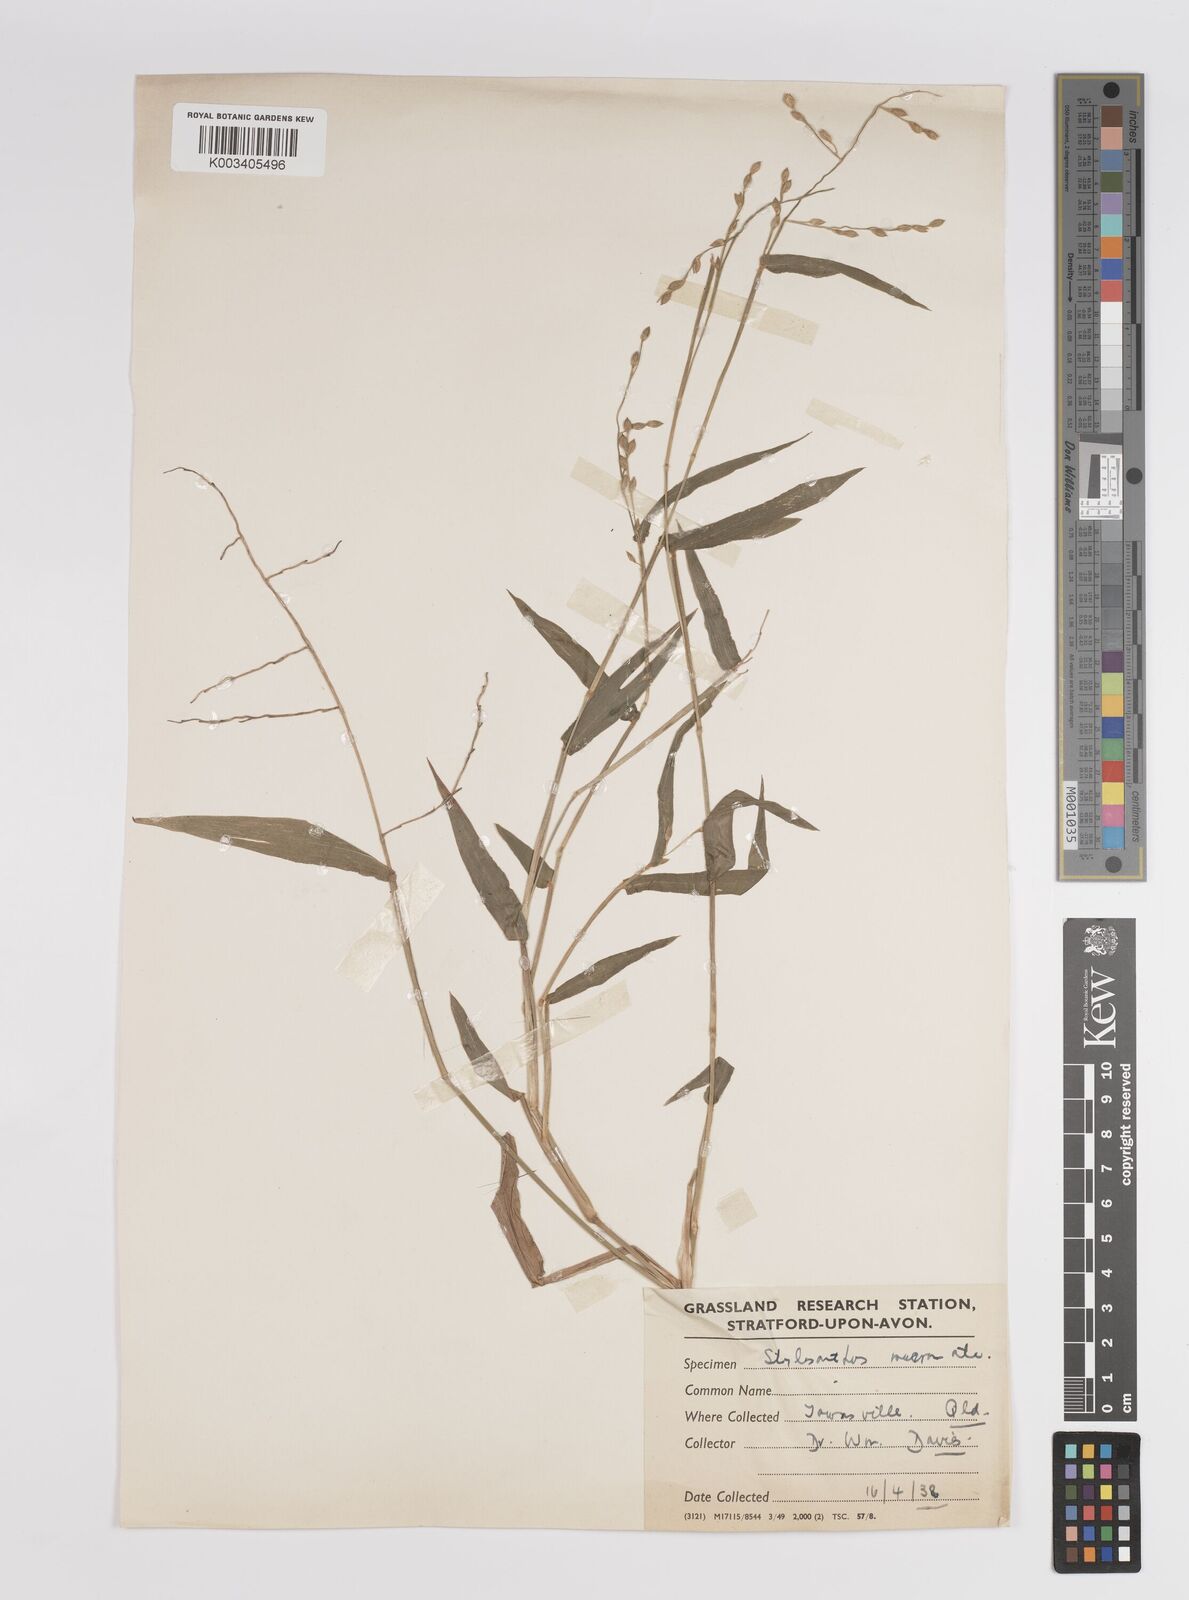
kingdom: Plantae
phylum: Tracheophyta
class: Liliopsida
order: Poales
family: Poaceae
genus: Panicum
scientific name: Panicum
